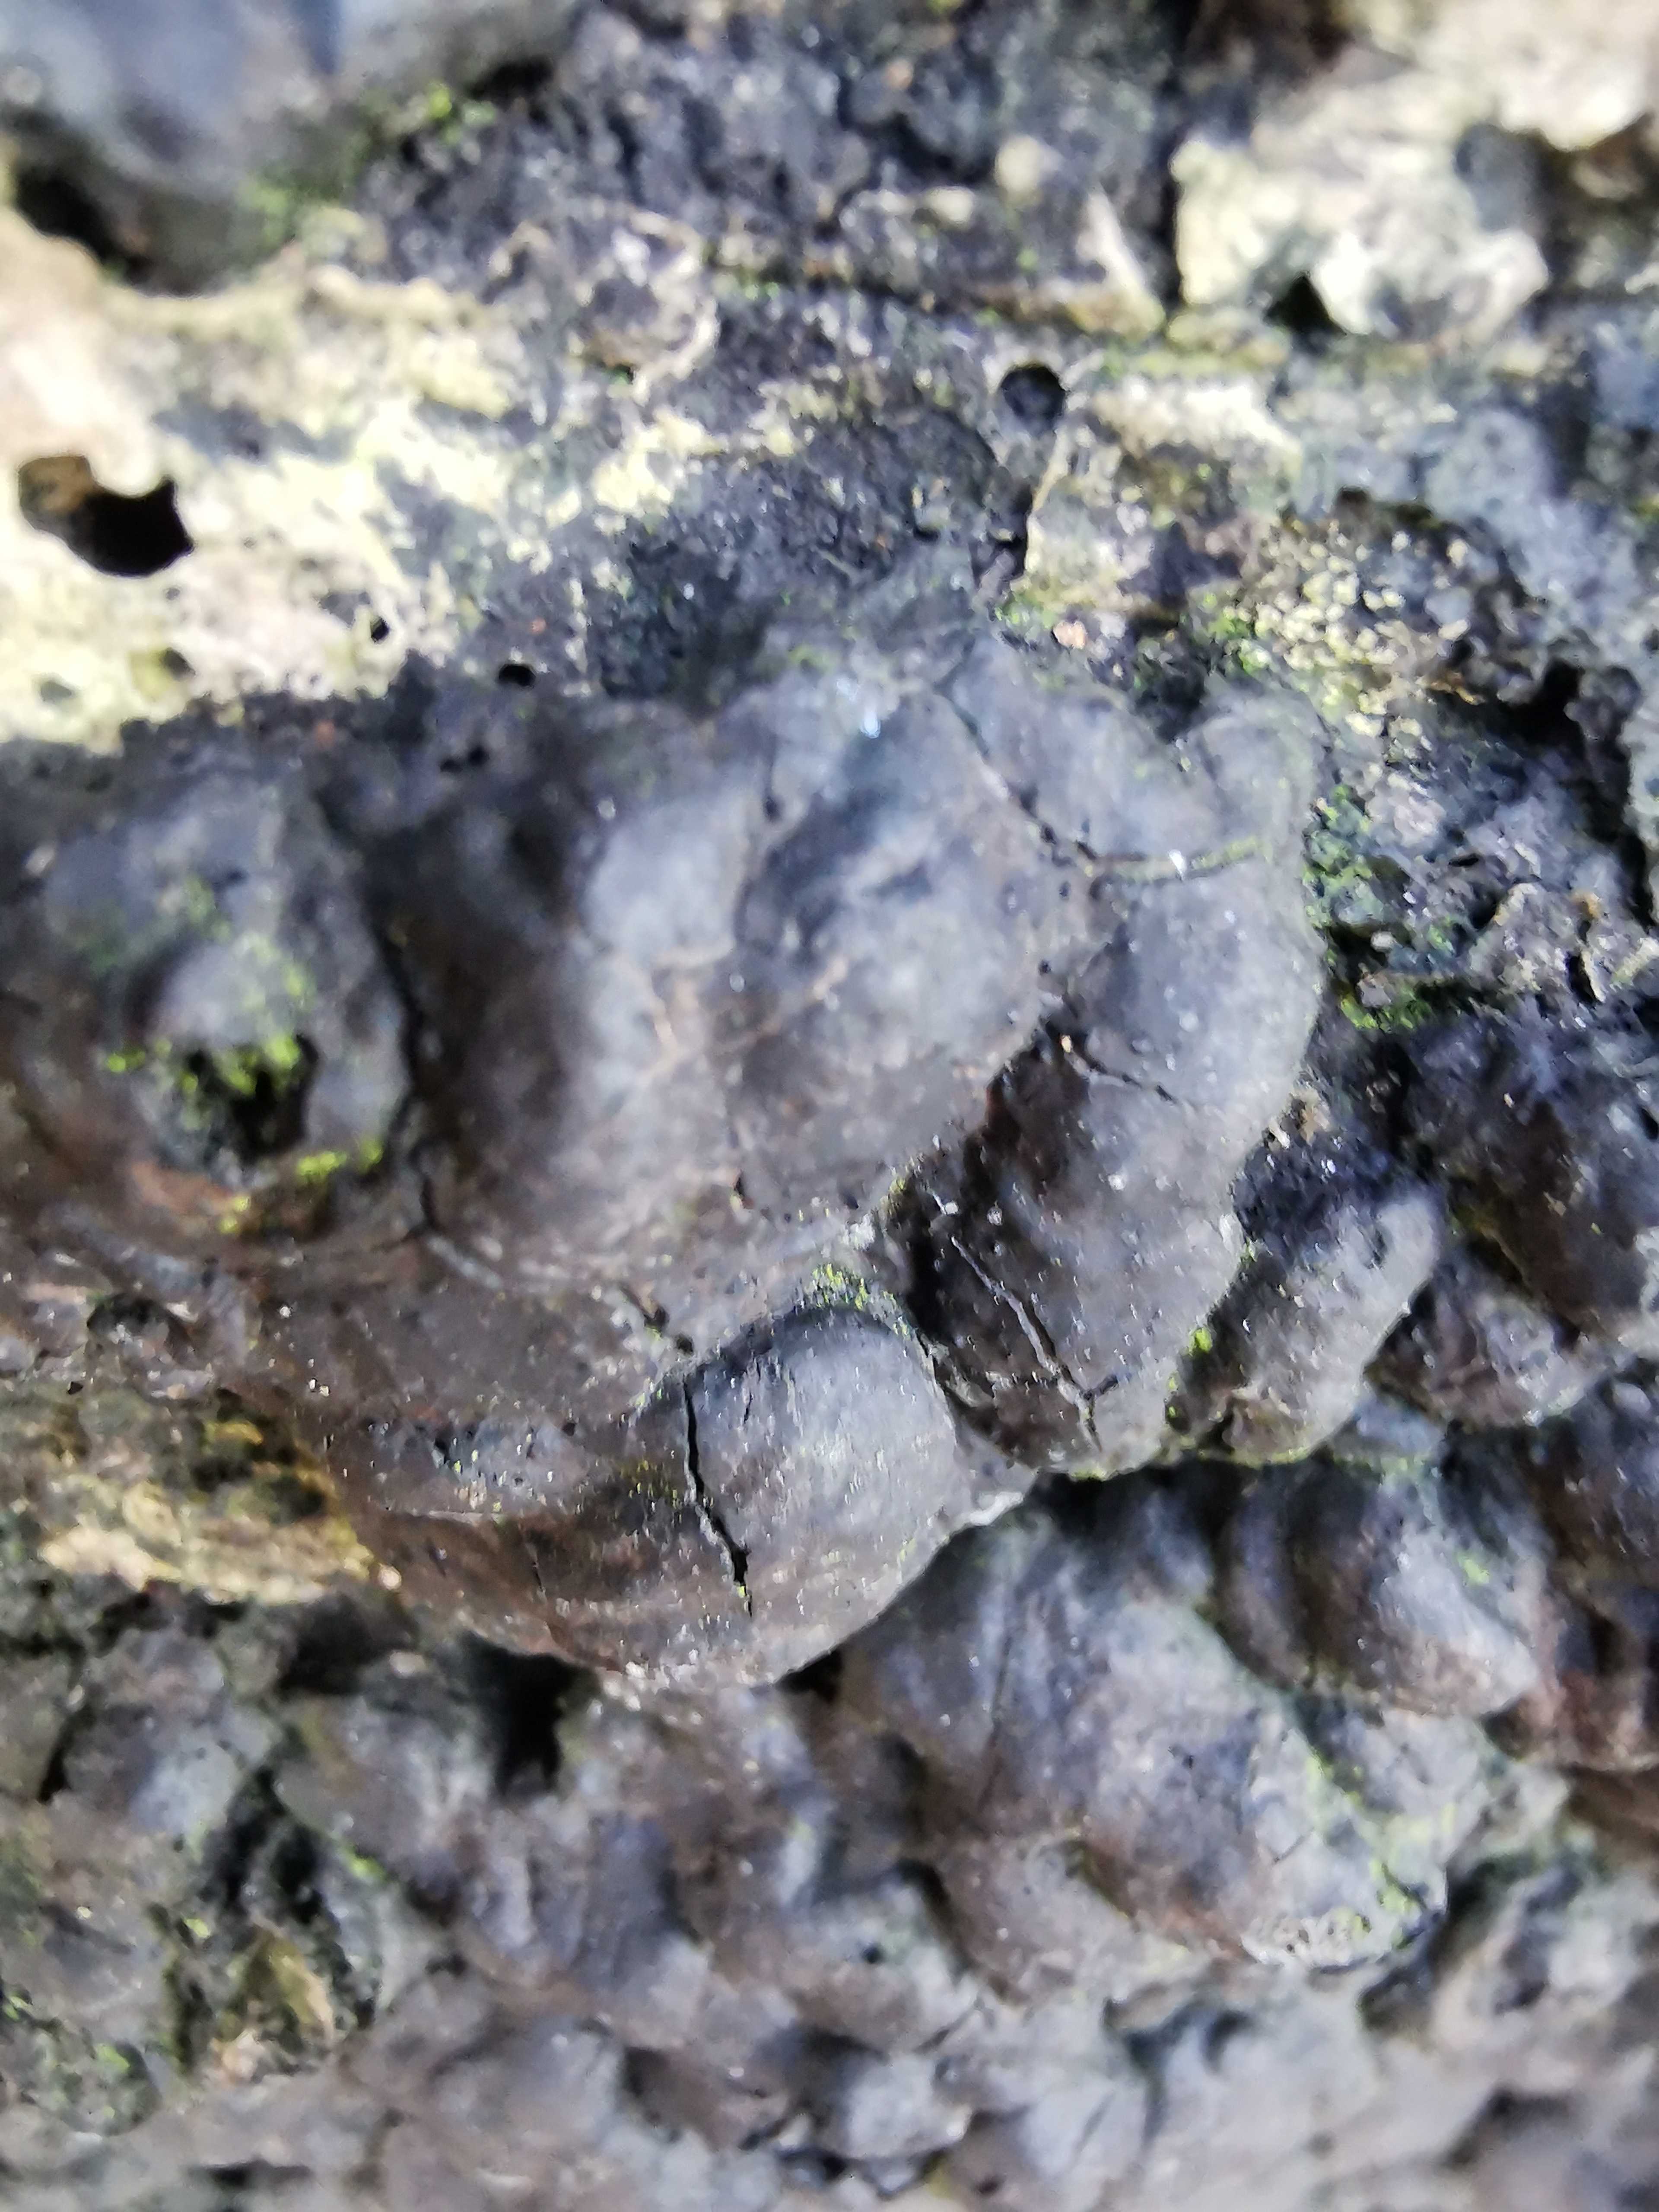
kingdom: Fungi
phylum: Ascomycota
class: Sordariomycetes
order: Xylariales
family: Xylariaceae
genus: Kretzschmaria
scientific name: Kretzschmaria deusta
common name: stor kulsvamp
